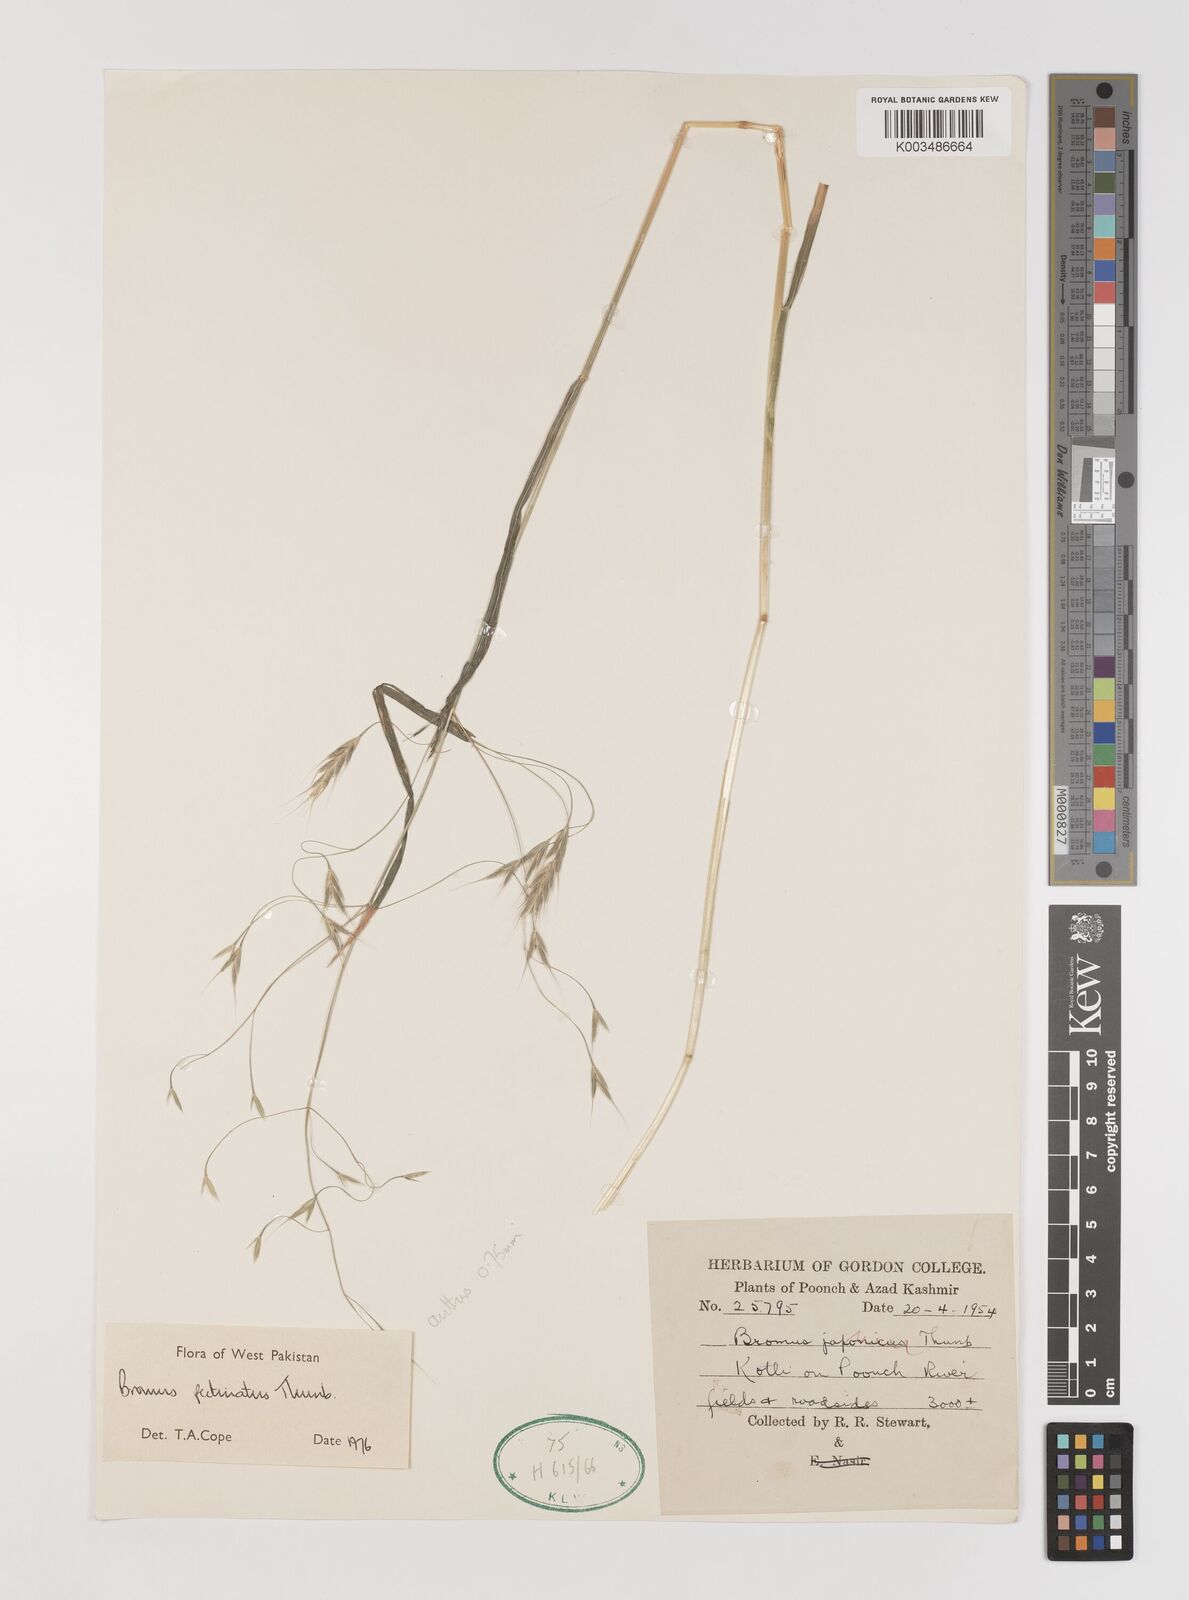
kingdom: Plantae
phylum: Tracheophyta
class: Liliopsida
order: Poales
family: Poaceae
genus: Bromus
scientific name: Bromus pectinatus
